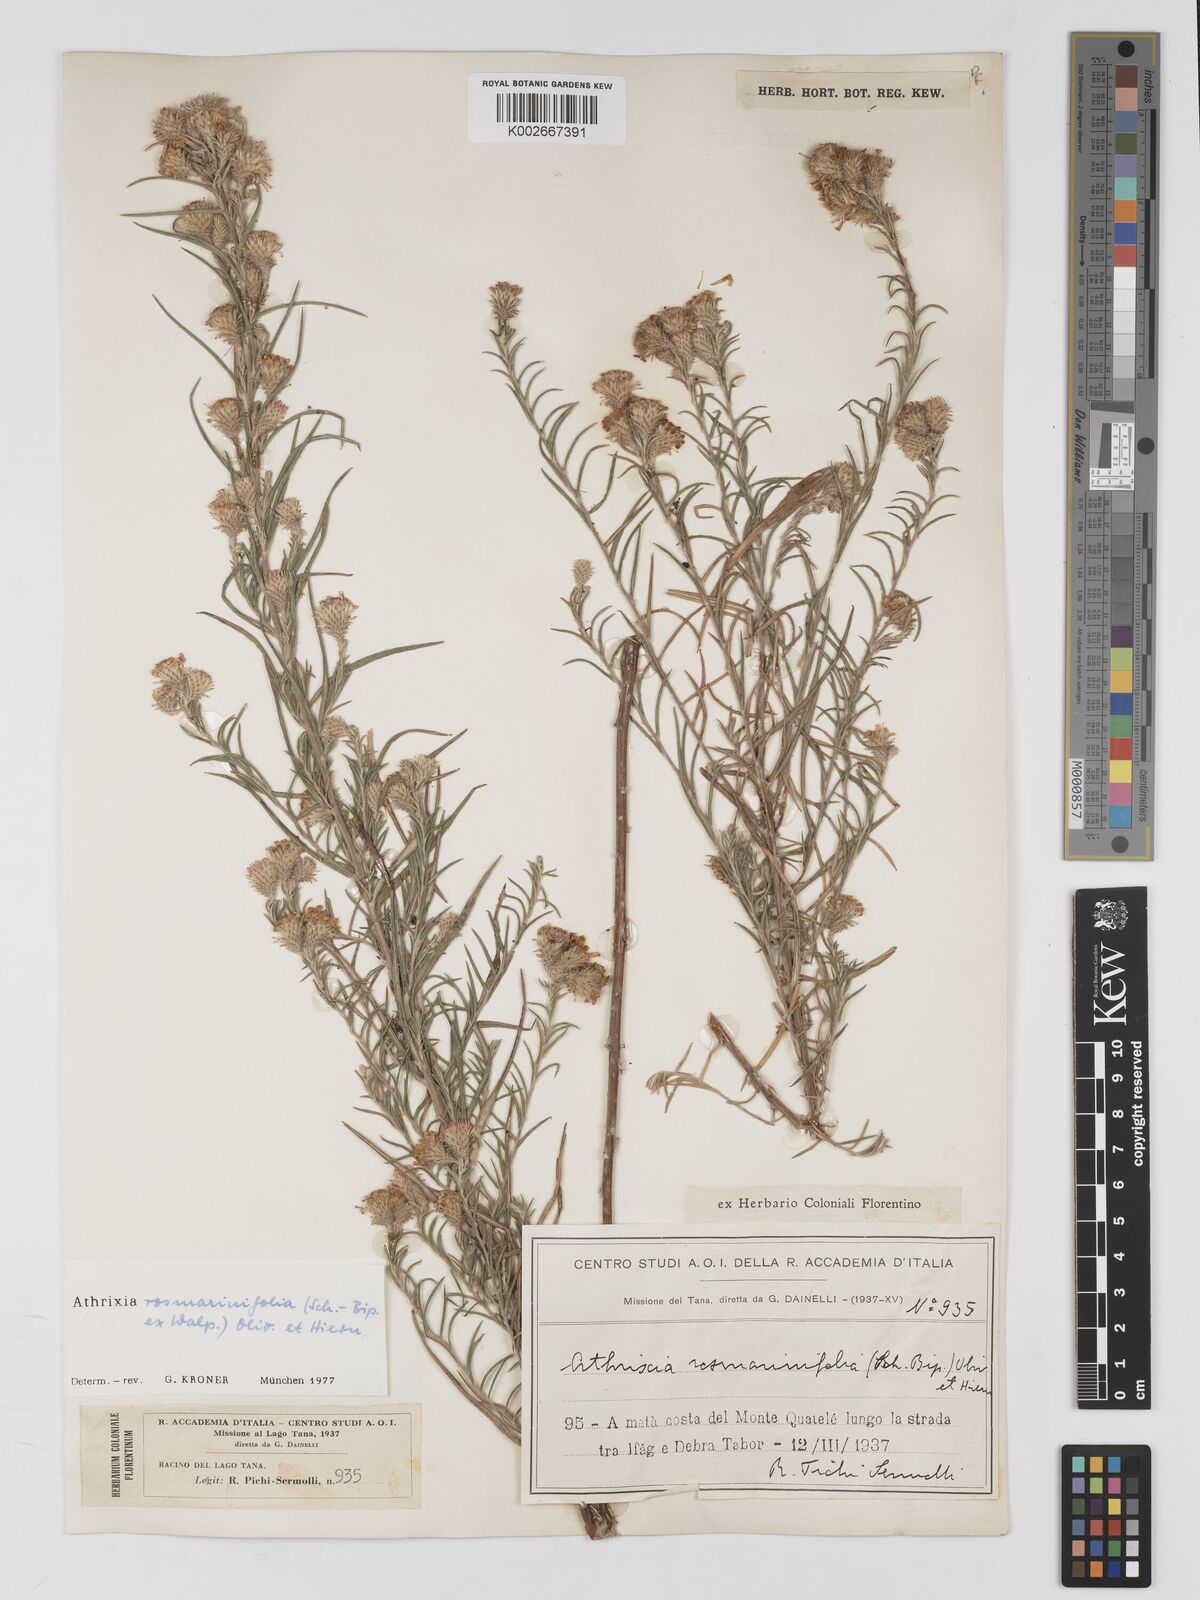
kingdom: Plantae
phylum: Tracheophyta
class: Magnoliopsida
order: Asterales
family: Asteraceae
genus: Athrixia
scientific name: Athrixia rosmarinifolia
